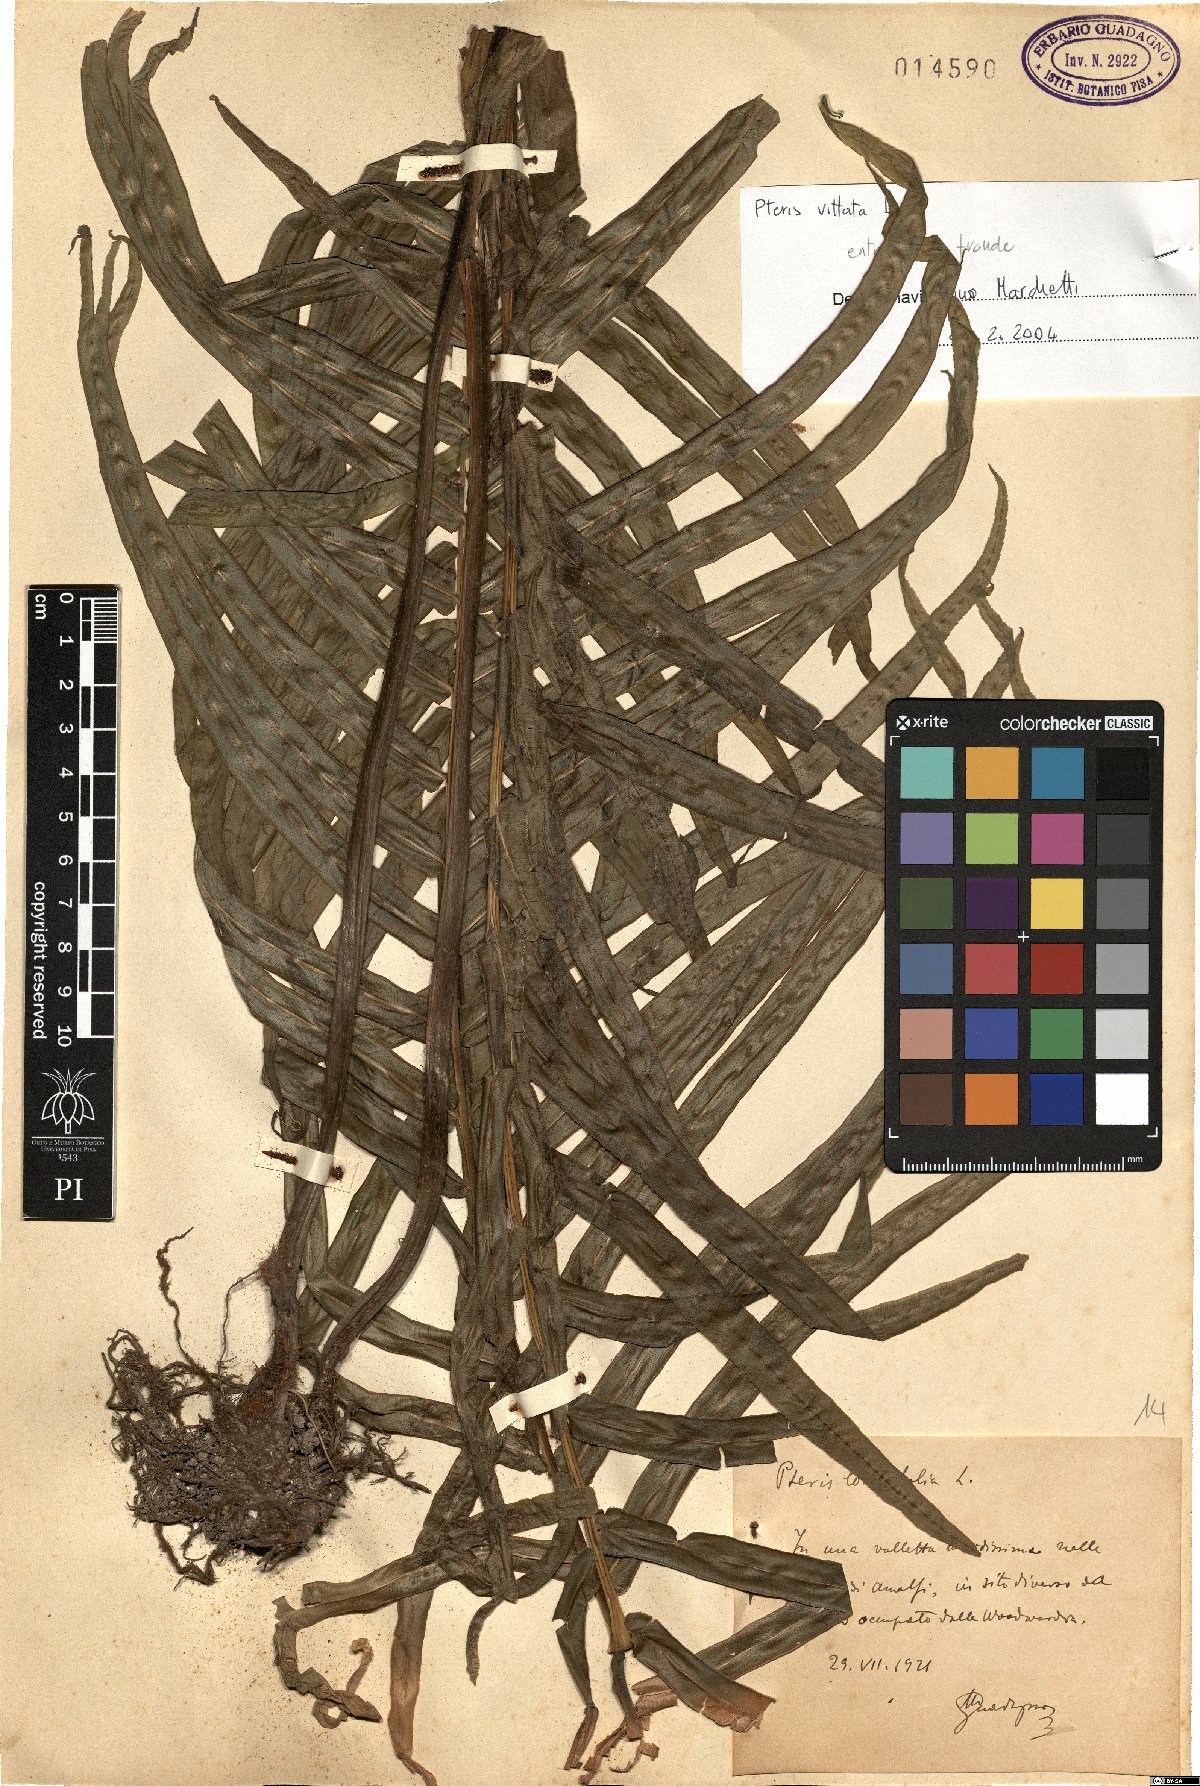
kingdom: Plantae
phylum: Tracheophyta
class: Polypodiopsida
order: Polypodiales
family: Pteridaceae
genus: Pteris
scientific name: Pteris vittata
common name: Ladder brake
